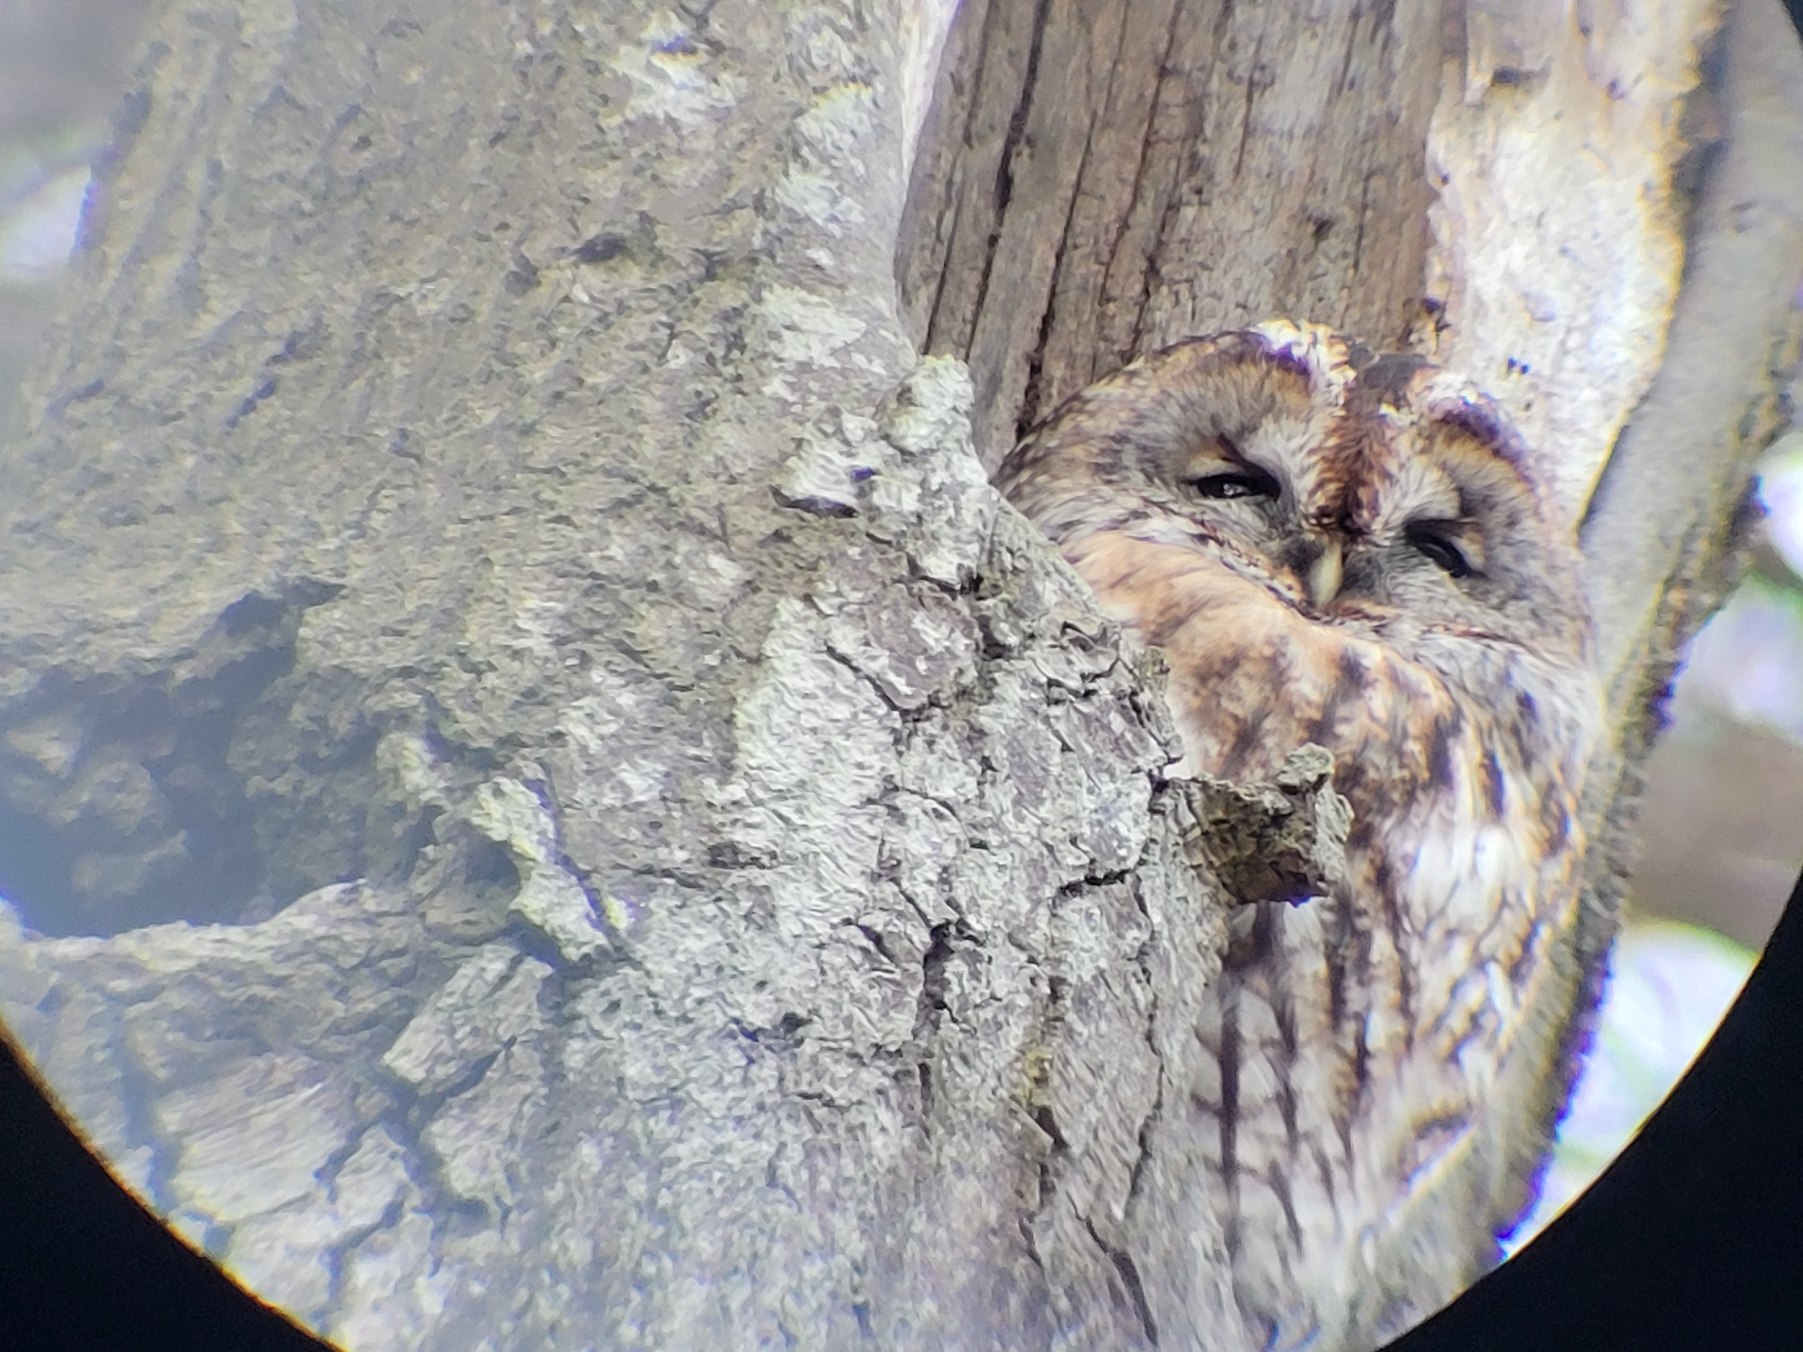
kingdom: Animalia
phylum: Chordata
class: Aves
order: Strigiformes
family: Strigidae
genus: Strix
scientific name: Strix aluco
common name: Natugle
